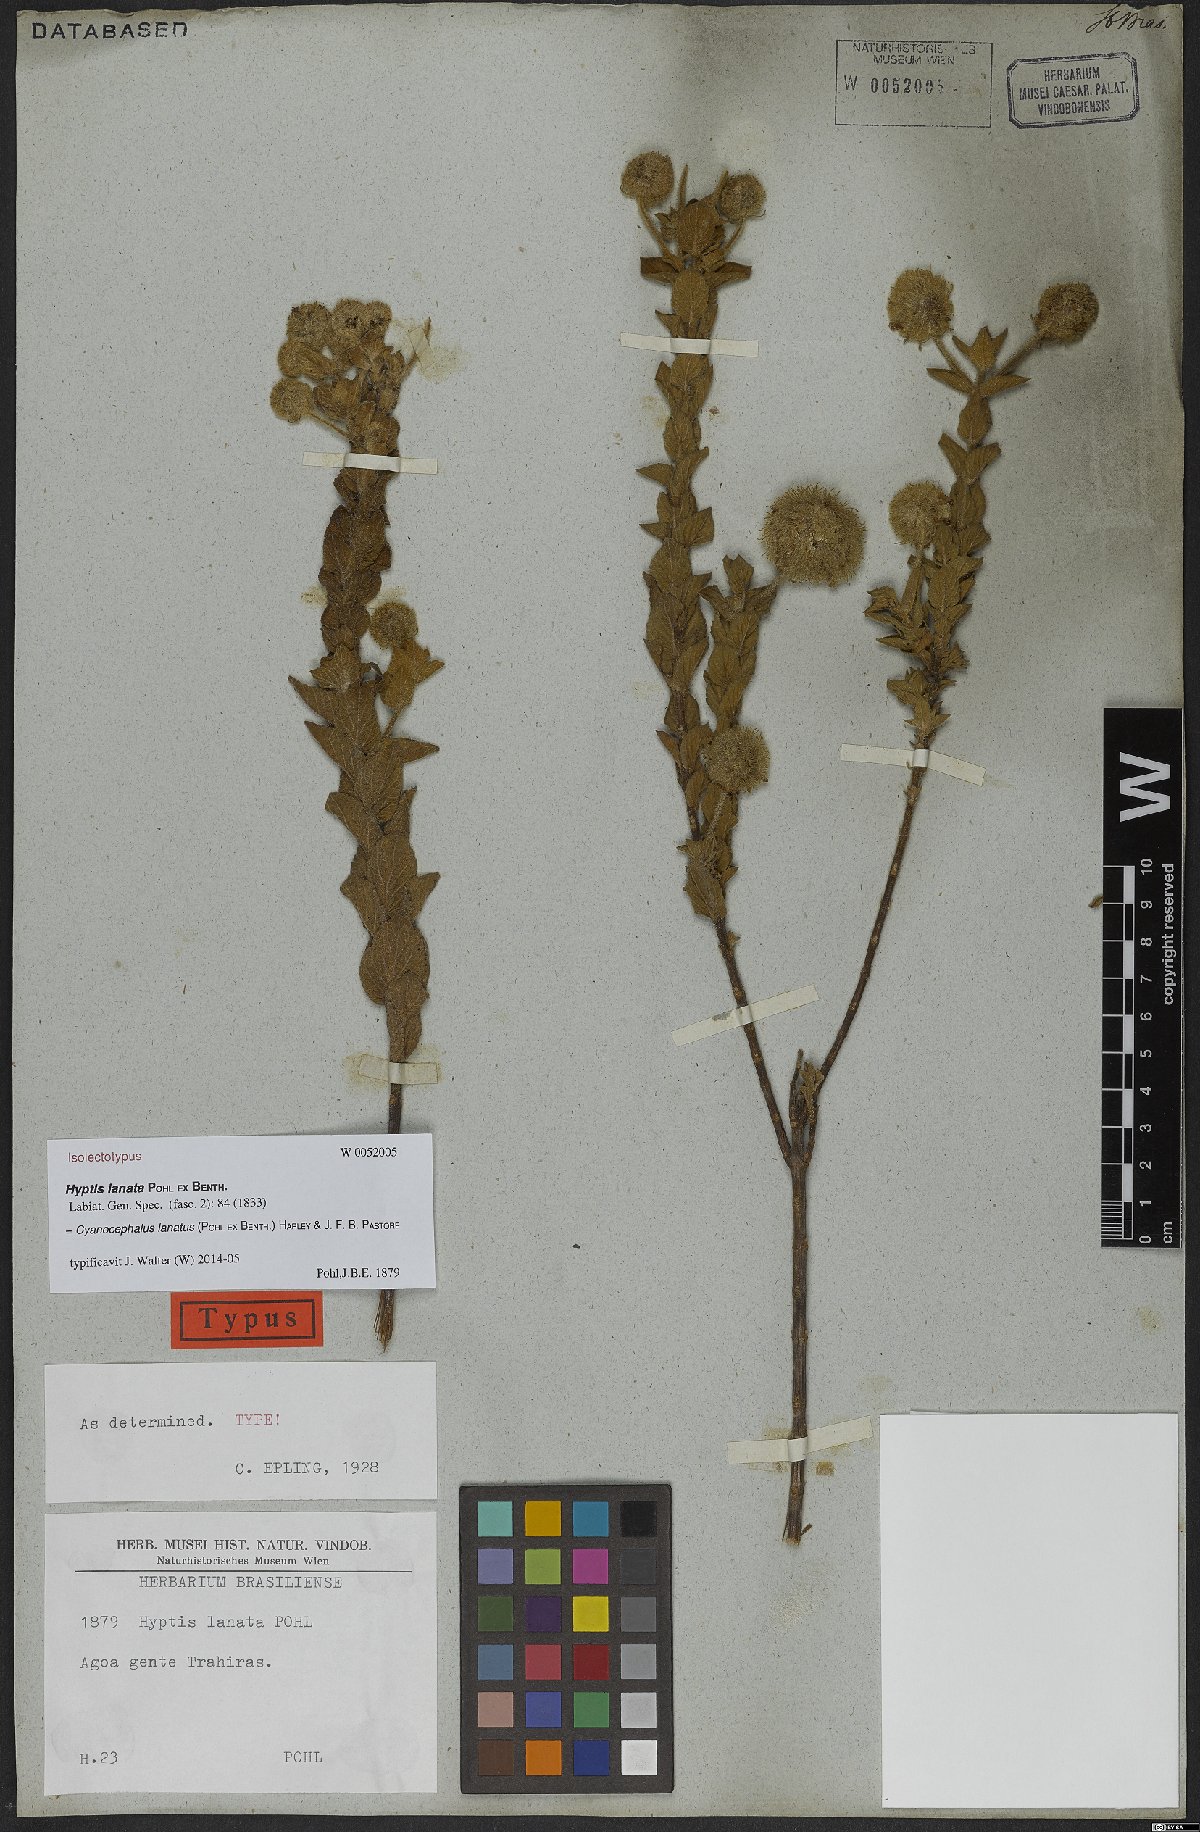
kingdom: Plantae
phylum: Tracheophyta
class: Magnoliopsida
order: Lamiales
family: Lamiaceae
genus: Cyanocephalus
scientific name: Cyanocephalus lanatus
